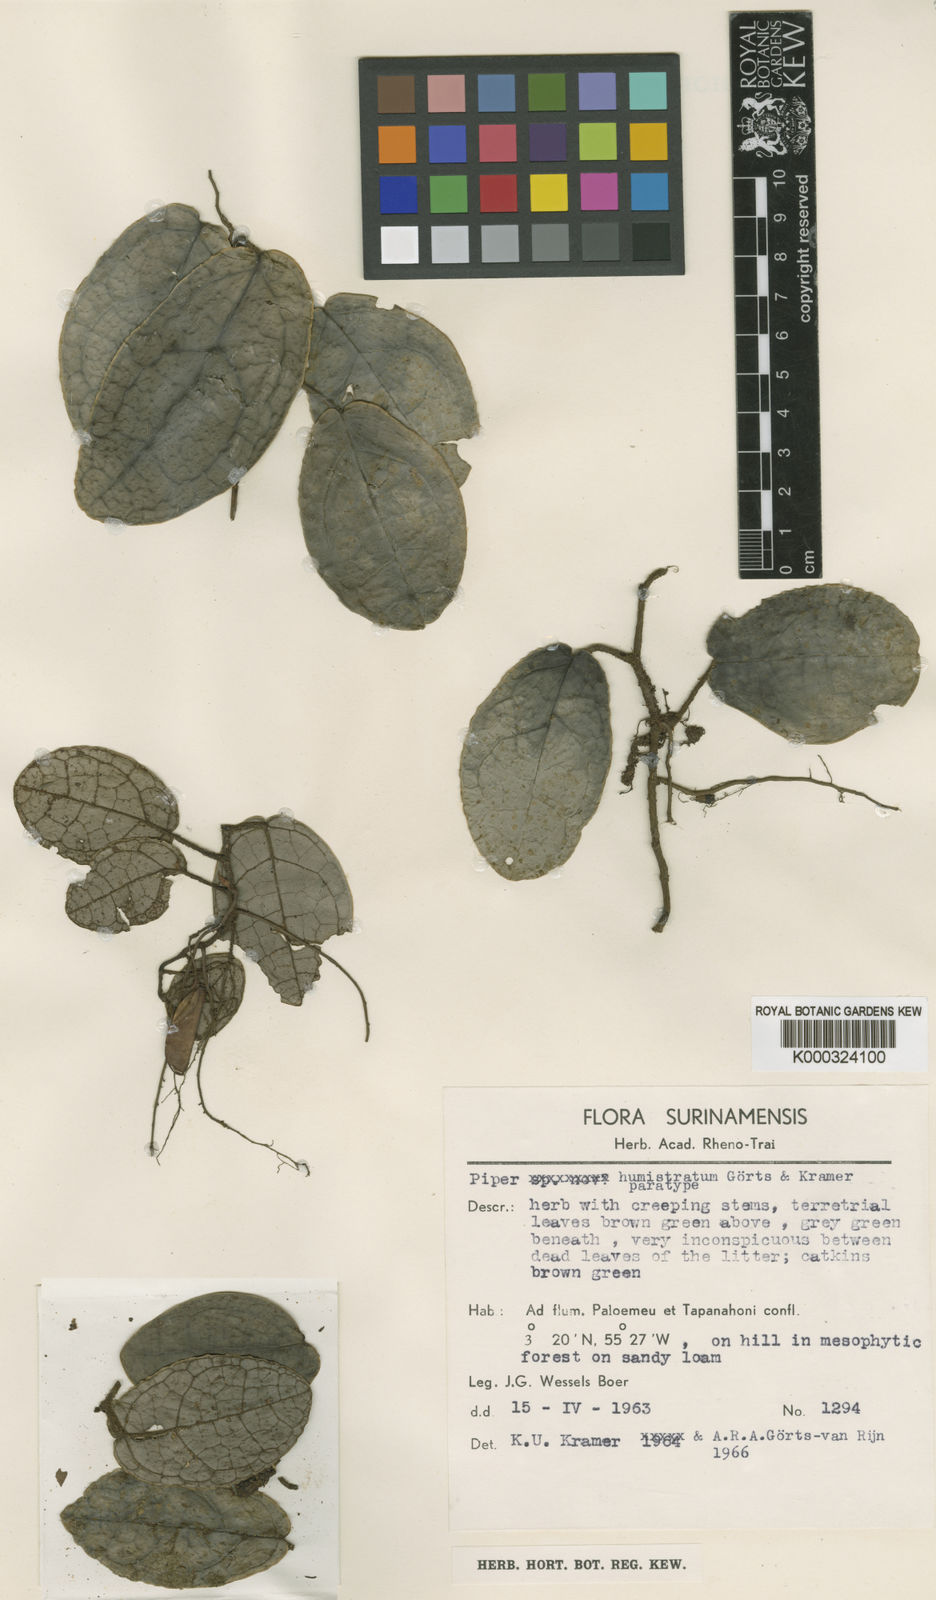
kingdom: Plantae
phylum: Tracheophyta
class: Magnoliopsida
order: Piperales
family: Piperaceae
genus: Piper
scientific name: Piper humistratum
